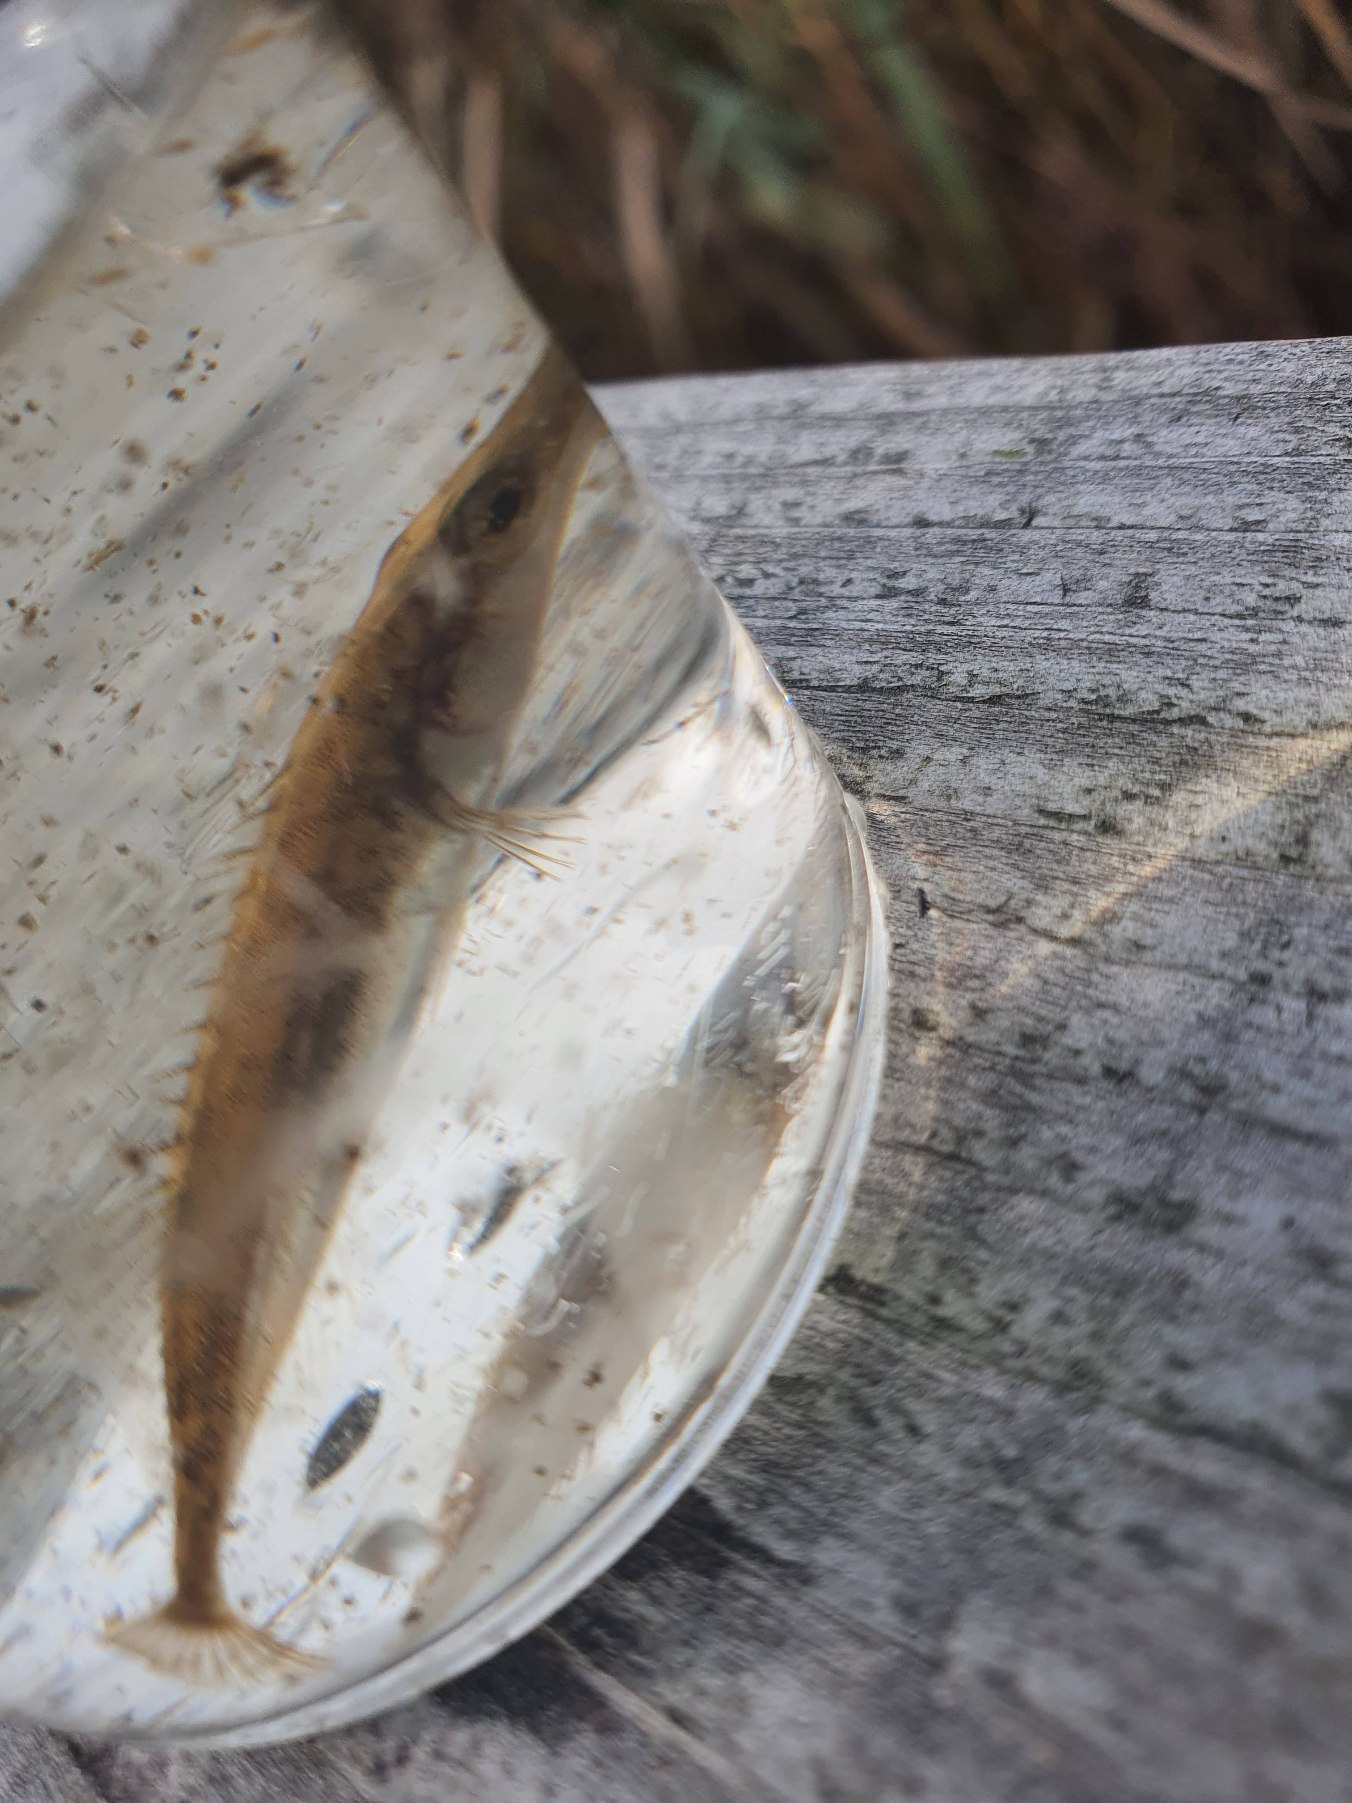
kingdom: Animalia
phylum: Chordata
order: Gasterosteiformes
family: Gasterosteidae
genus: Pungitius
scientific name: Pungitius pungitius
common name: Nipigget hundestejle
